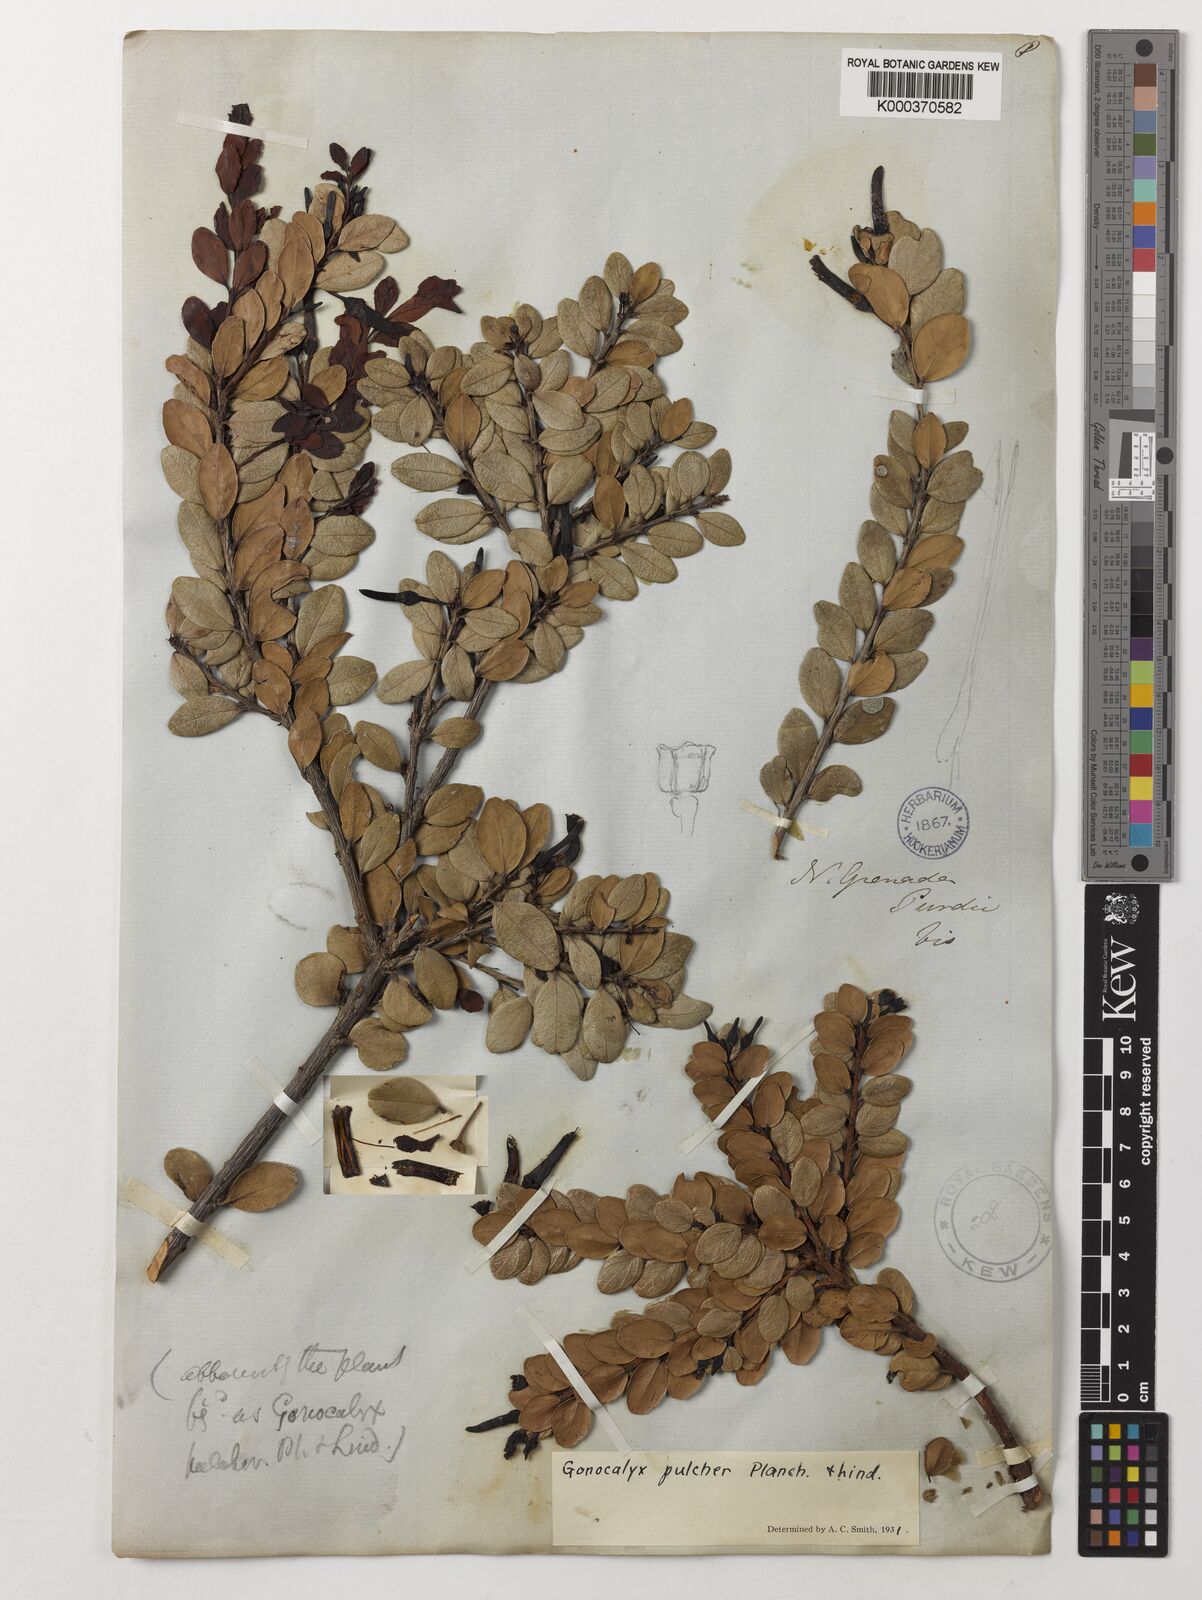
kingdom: Plantae
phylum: Tracheophyta
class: Magnoliopsida
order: Ericales
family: Ericaceae
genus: Gonocalyx
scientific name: Gonocalyx pulcher
